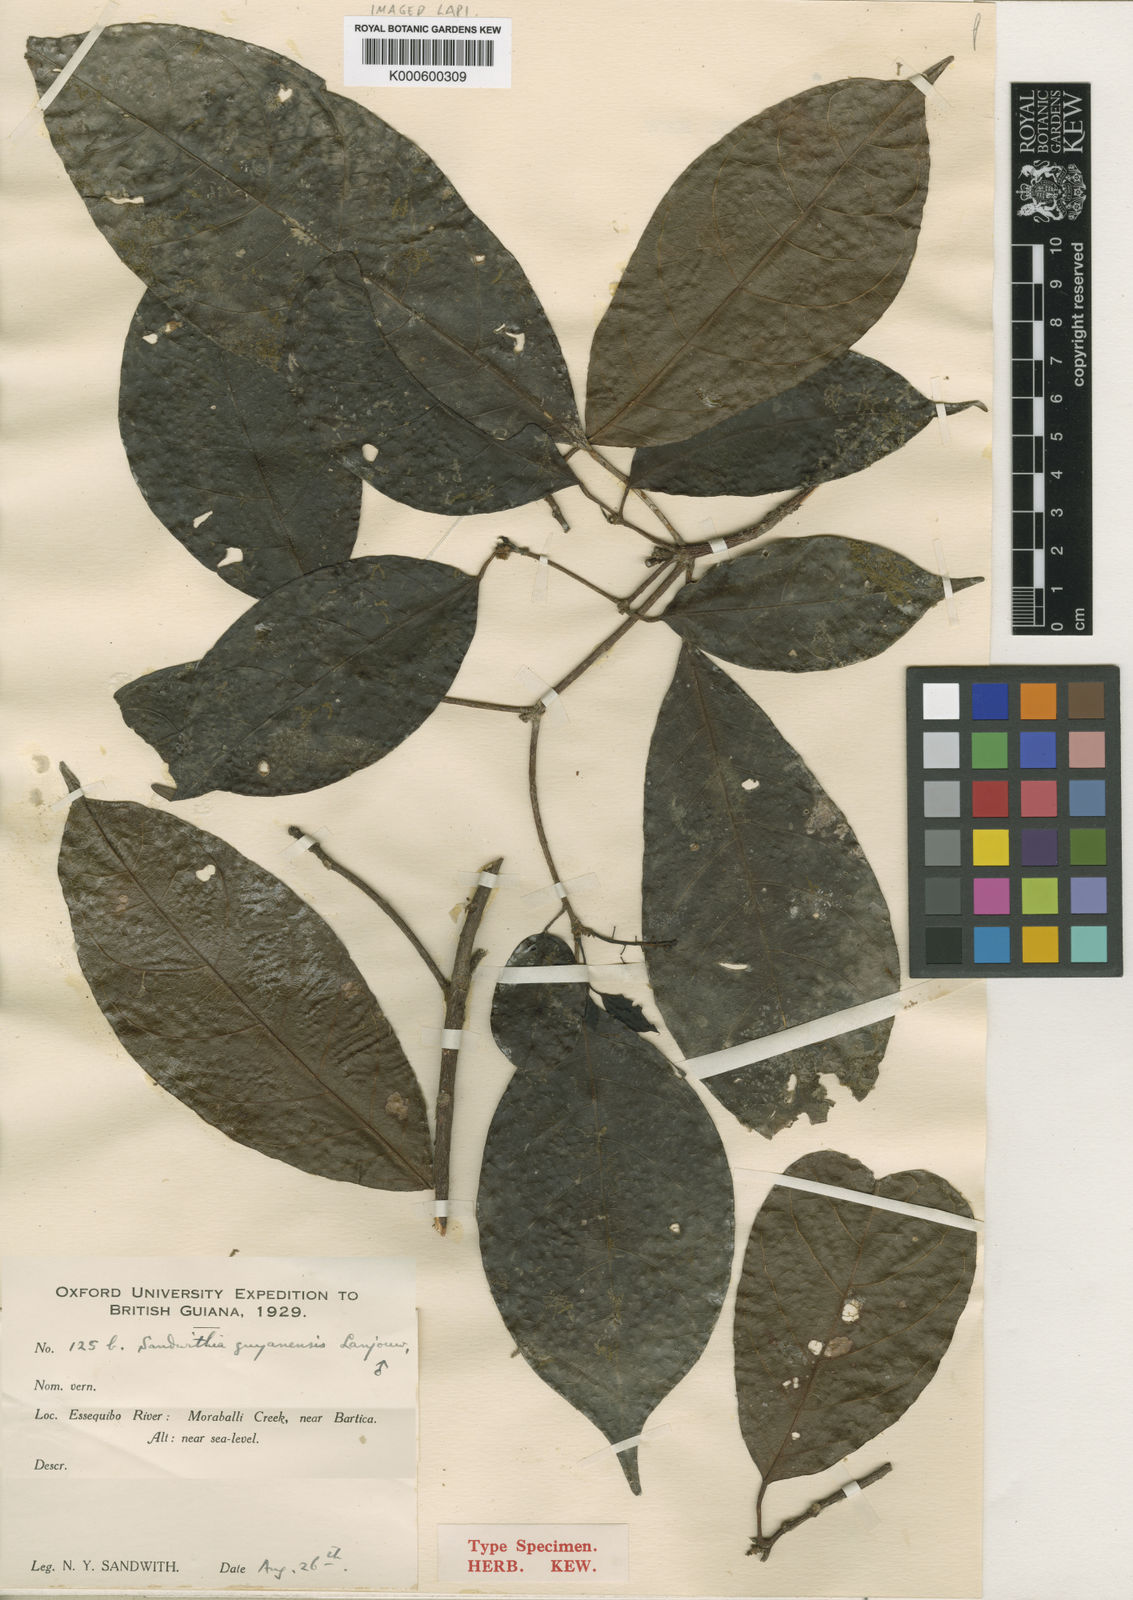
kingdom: Plantae
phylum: Tracheophyta
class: Magnoliopsida
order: Malpighiales
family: Euphorbiaceae
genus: Sandwithia
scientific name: Sandwithia guyanensis
